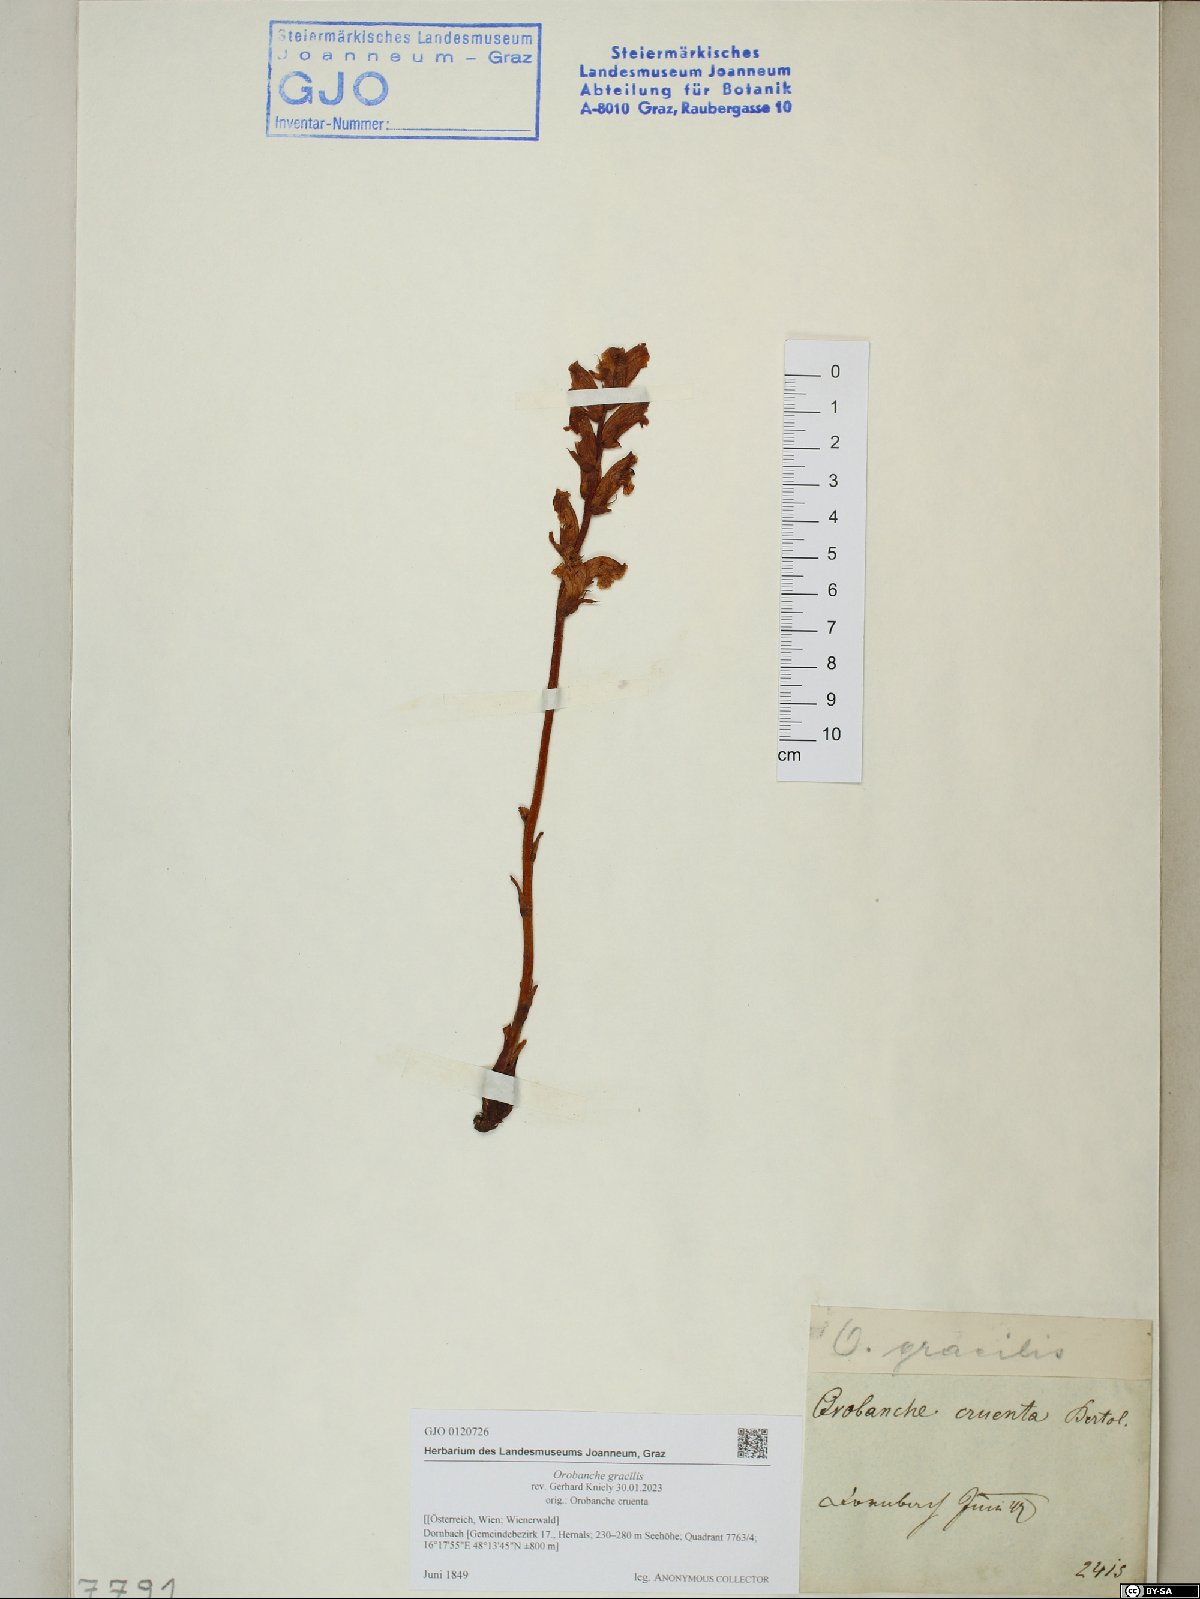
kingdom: Plantae
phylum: Tracheophyta
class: Magnoliopsida
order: Lamiales
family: Orobanchaceae
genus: Orobanche
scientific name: Orobanche gracilis
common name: Slender broomrape
